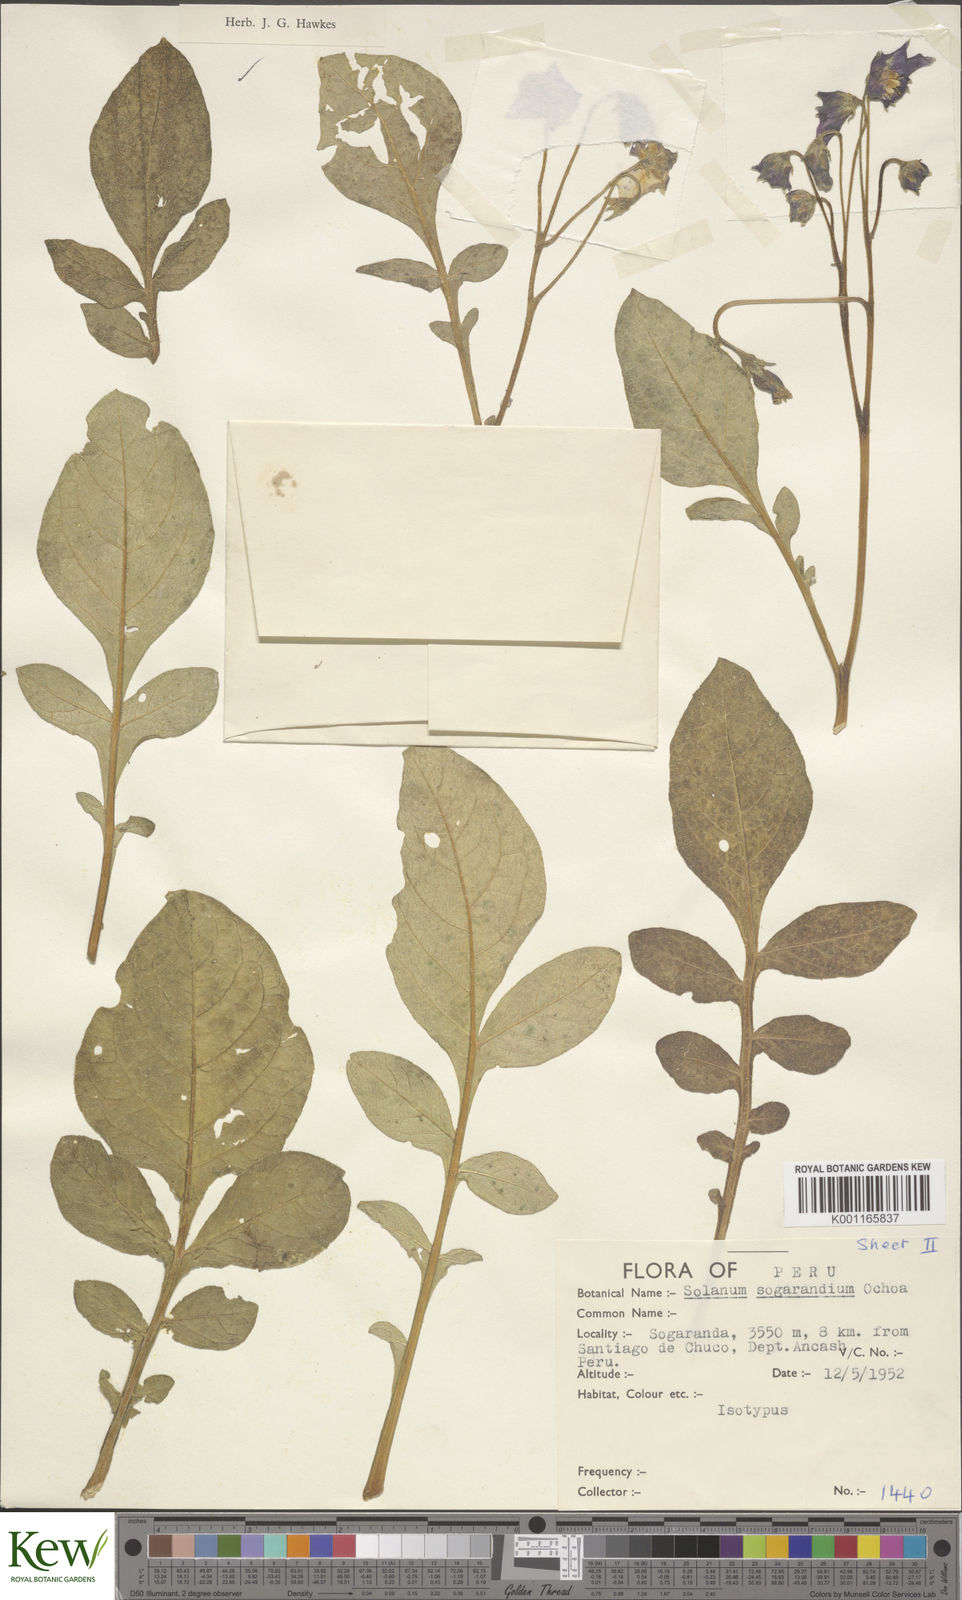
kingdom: Plantae
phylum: Tracheophyta
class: Magnoliopsida
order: Solanales
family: Solanaceae
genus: Solanum
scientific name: Solanum sogarandinum
